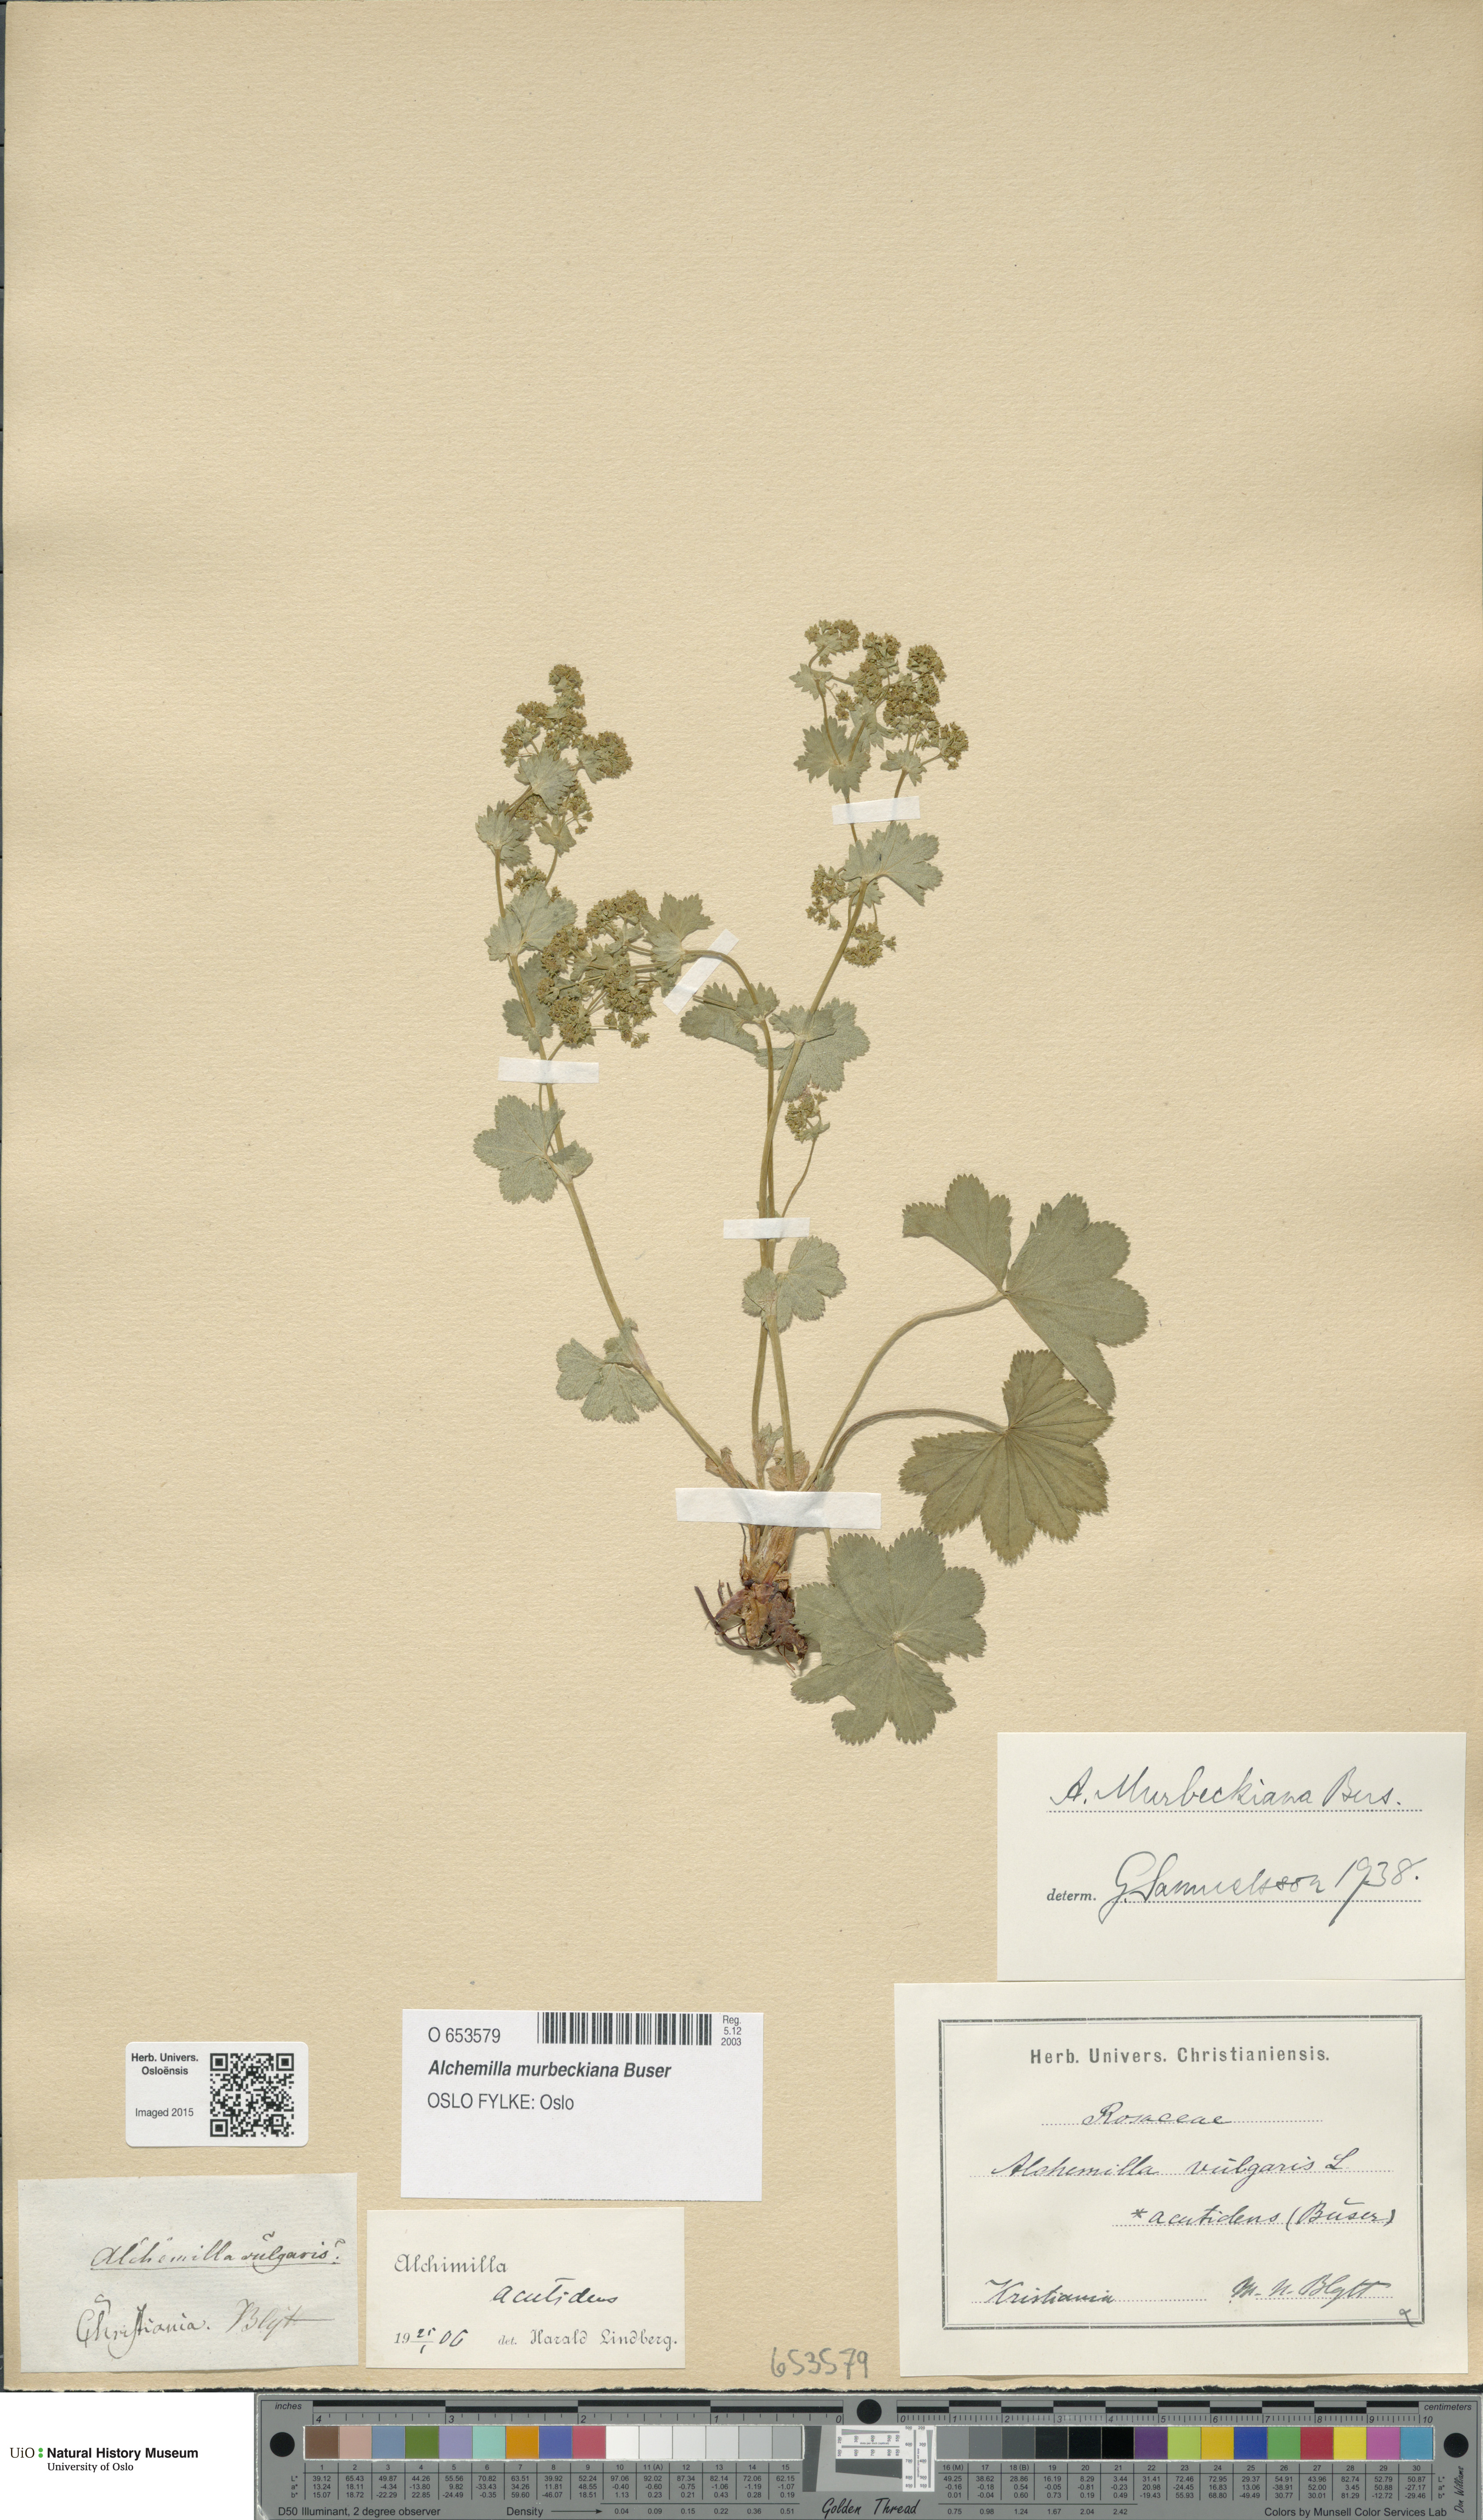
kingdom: Plantae
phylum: Tracheophyta
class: Magnoliopsida
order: Rosales
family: Rosaceae
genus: Alchemilla
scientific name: Alchemilla murbeckiana
